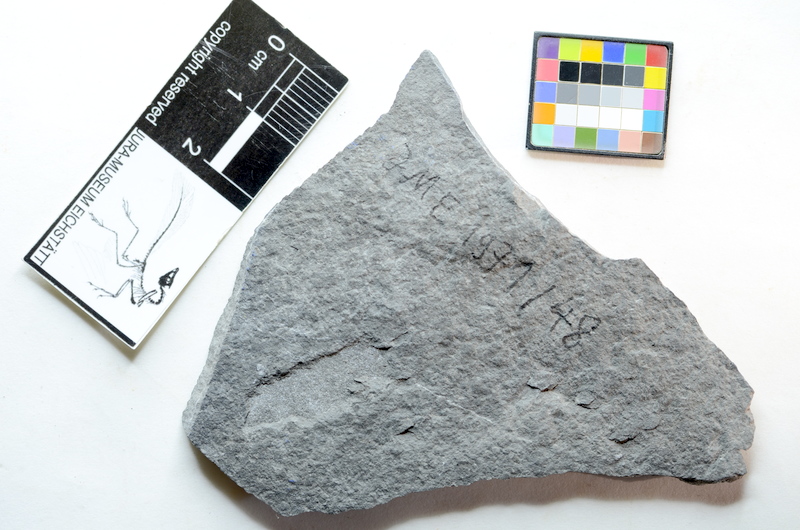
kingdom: Animalia
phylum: Chordata
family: Pholidophoridae
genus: Pholidophorus
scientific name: Pholidophorus pusillus
